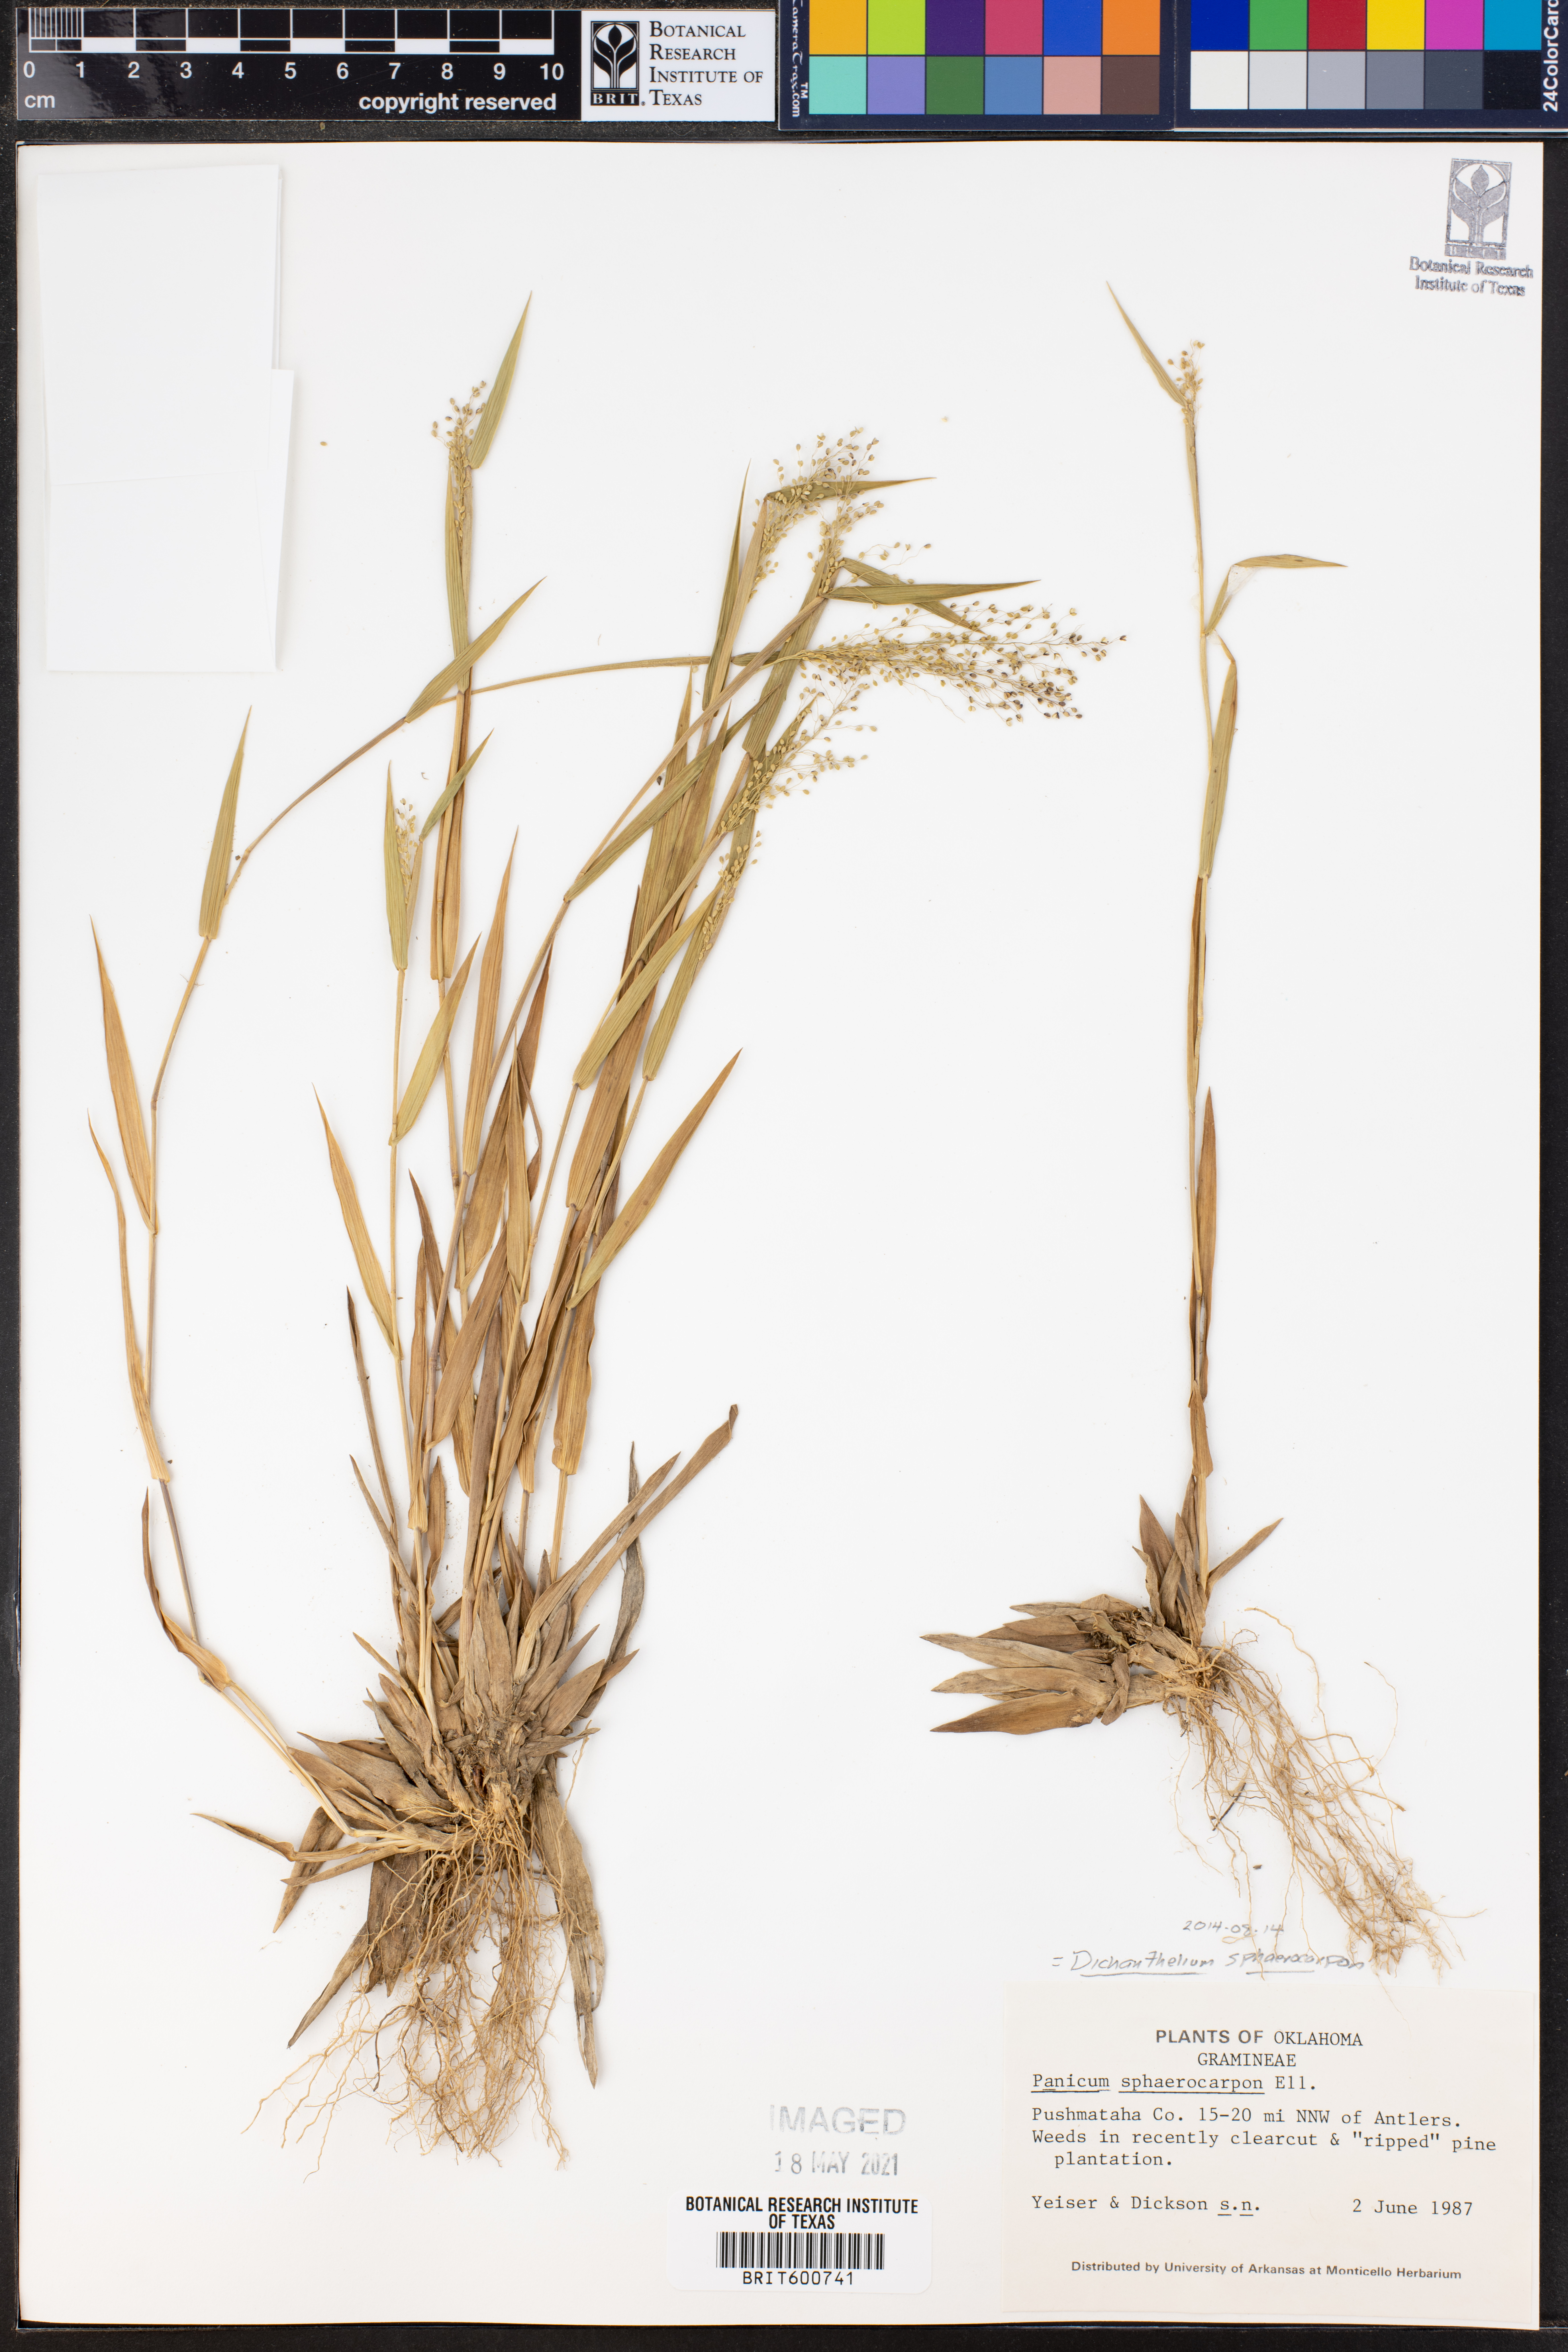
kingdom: Plantae
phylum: Tracheophyta
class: Liliopsida
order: Poales
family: Poaceae
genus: Dichanthelium
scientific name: Dichanthelium sphaerocarpon
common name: Round-fruited panicgrass
